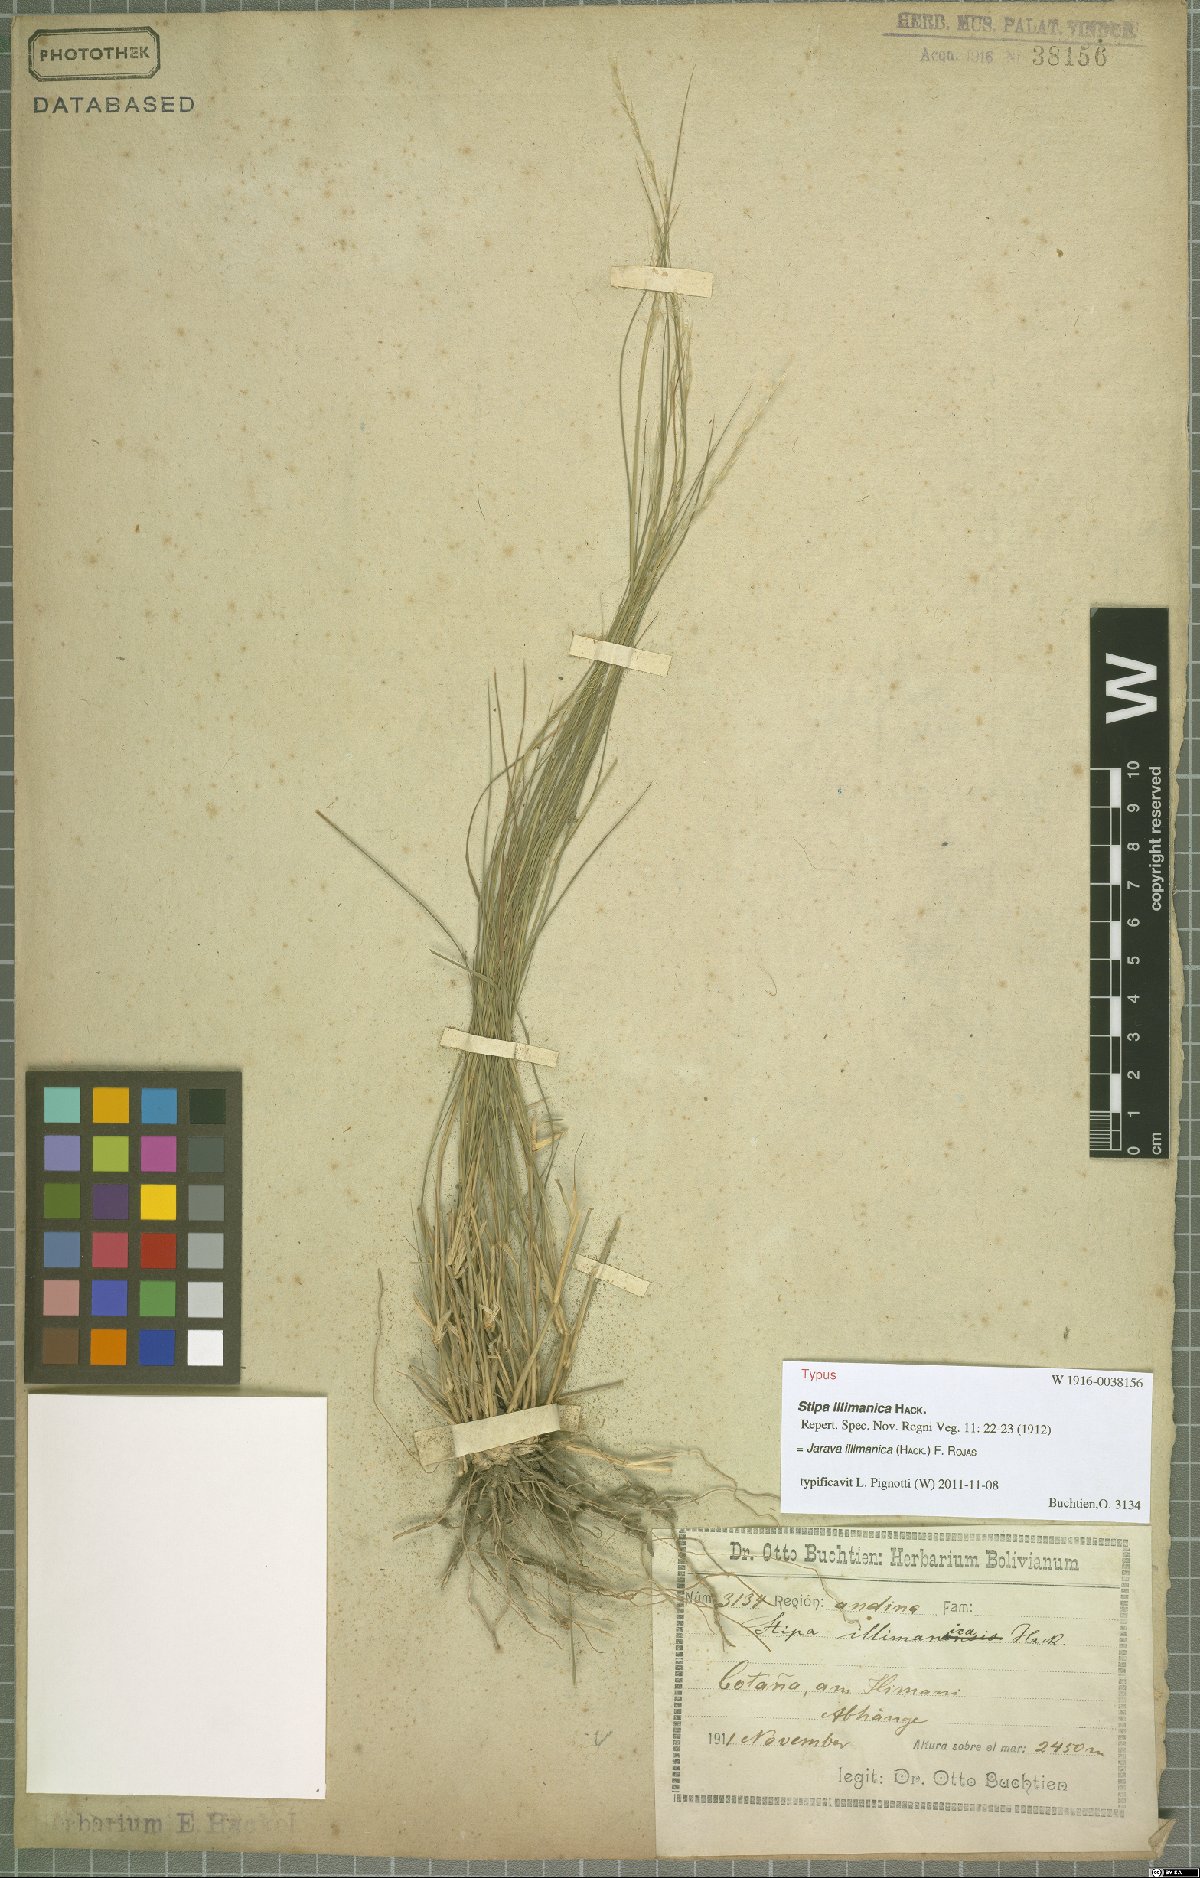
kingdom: Plantae
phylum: Tracheophyta
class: Liliopsida
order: Poales
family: Poaceae
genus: Stipa
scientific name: Stipa illimanica
